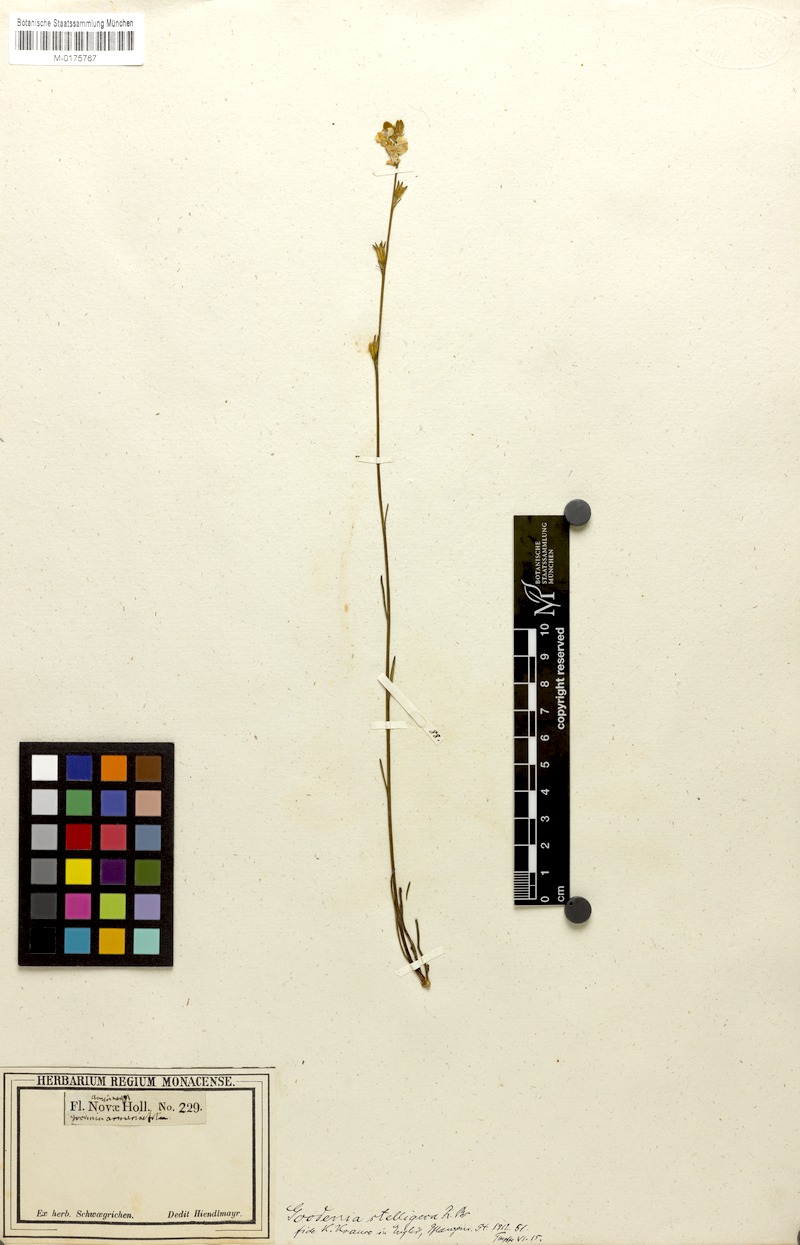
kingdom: Plantae
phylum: Tracheophyta
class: Magnoliopsida
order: Asterales
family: Goodeniaceae
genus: Goodenia
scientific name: Goodenia stelligera
